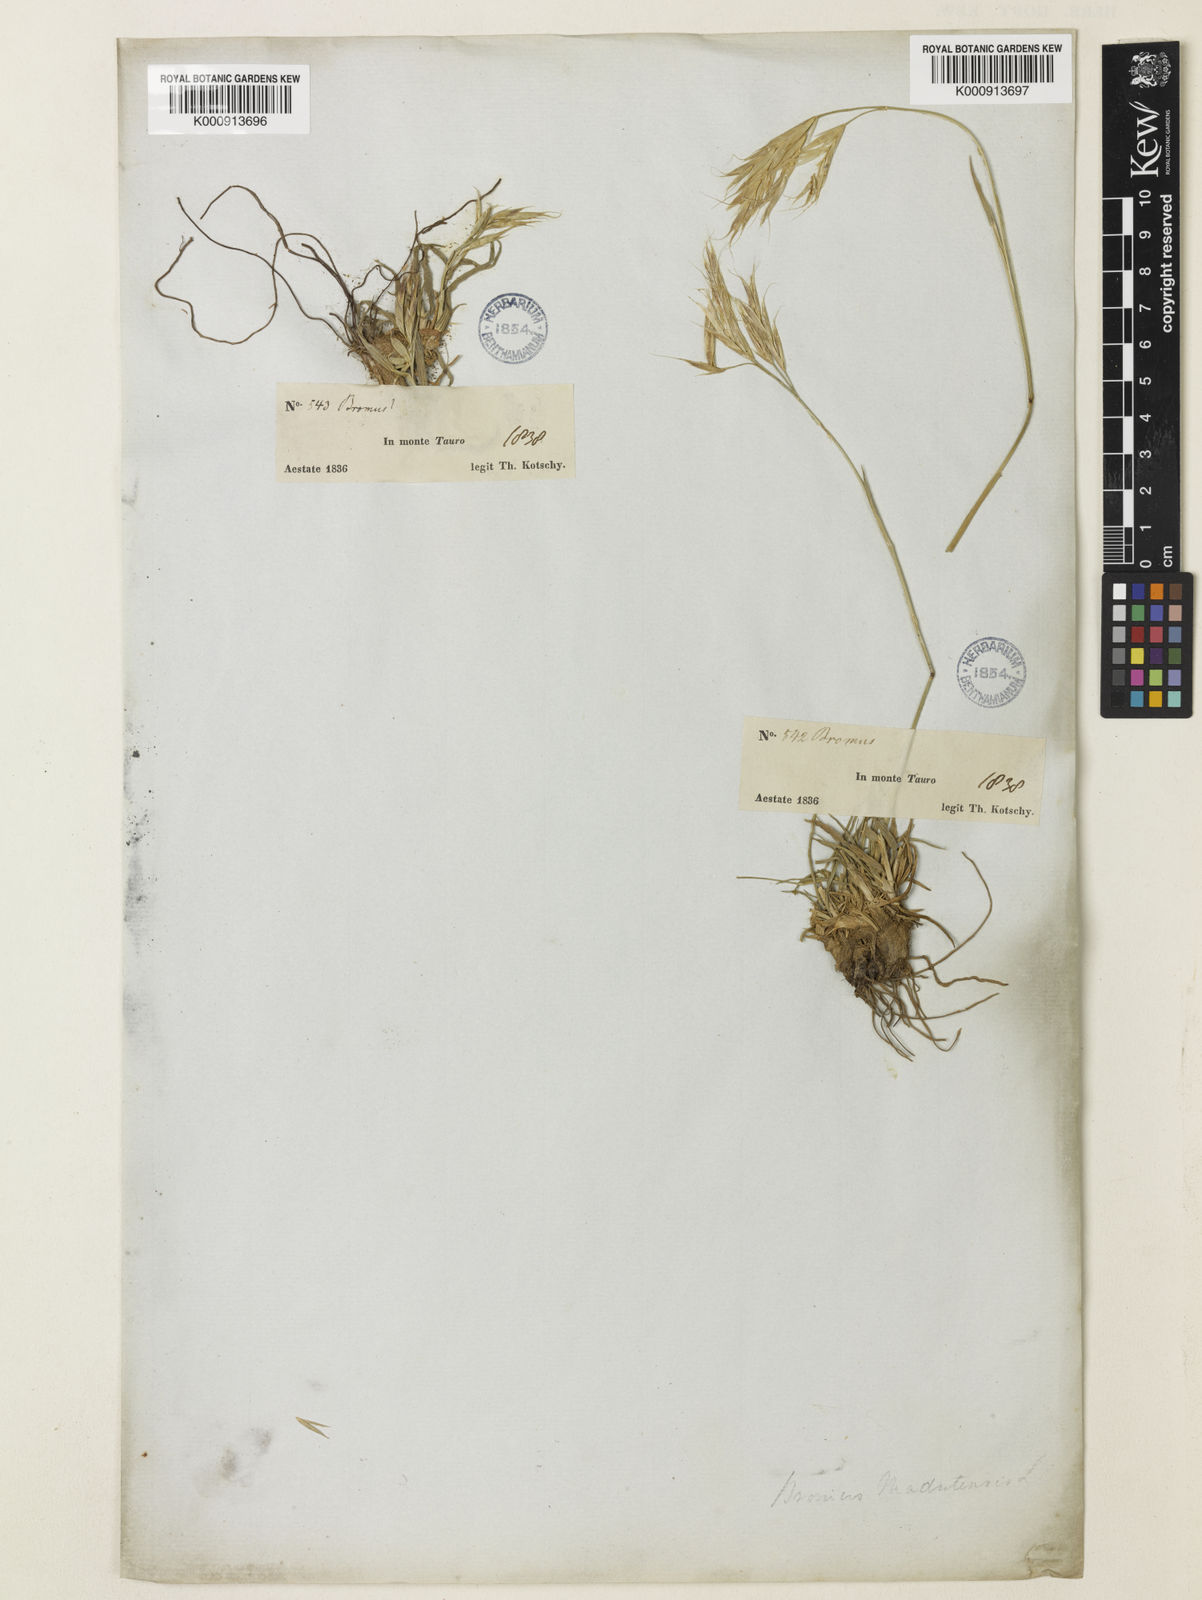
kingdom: Plantae
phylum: Tracheophyta
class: Liliopsida
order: Poales
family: Poaceae
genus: Bromus
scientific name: Bromus sclerophyllus
